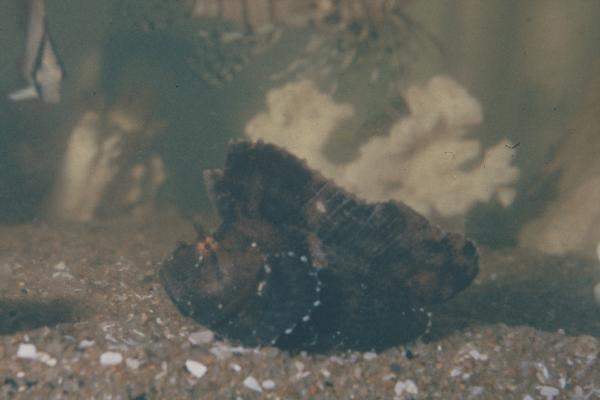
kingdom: Animalia
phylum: Chordata
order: Scorpaeniformes
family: Scorpaenidae
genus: Taenianotus
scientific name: Taenianotus triacanthus
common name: Leaf scorpionfish
